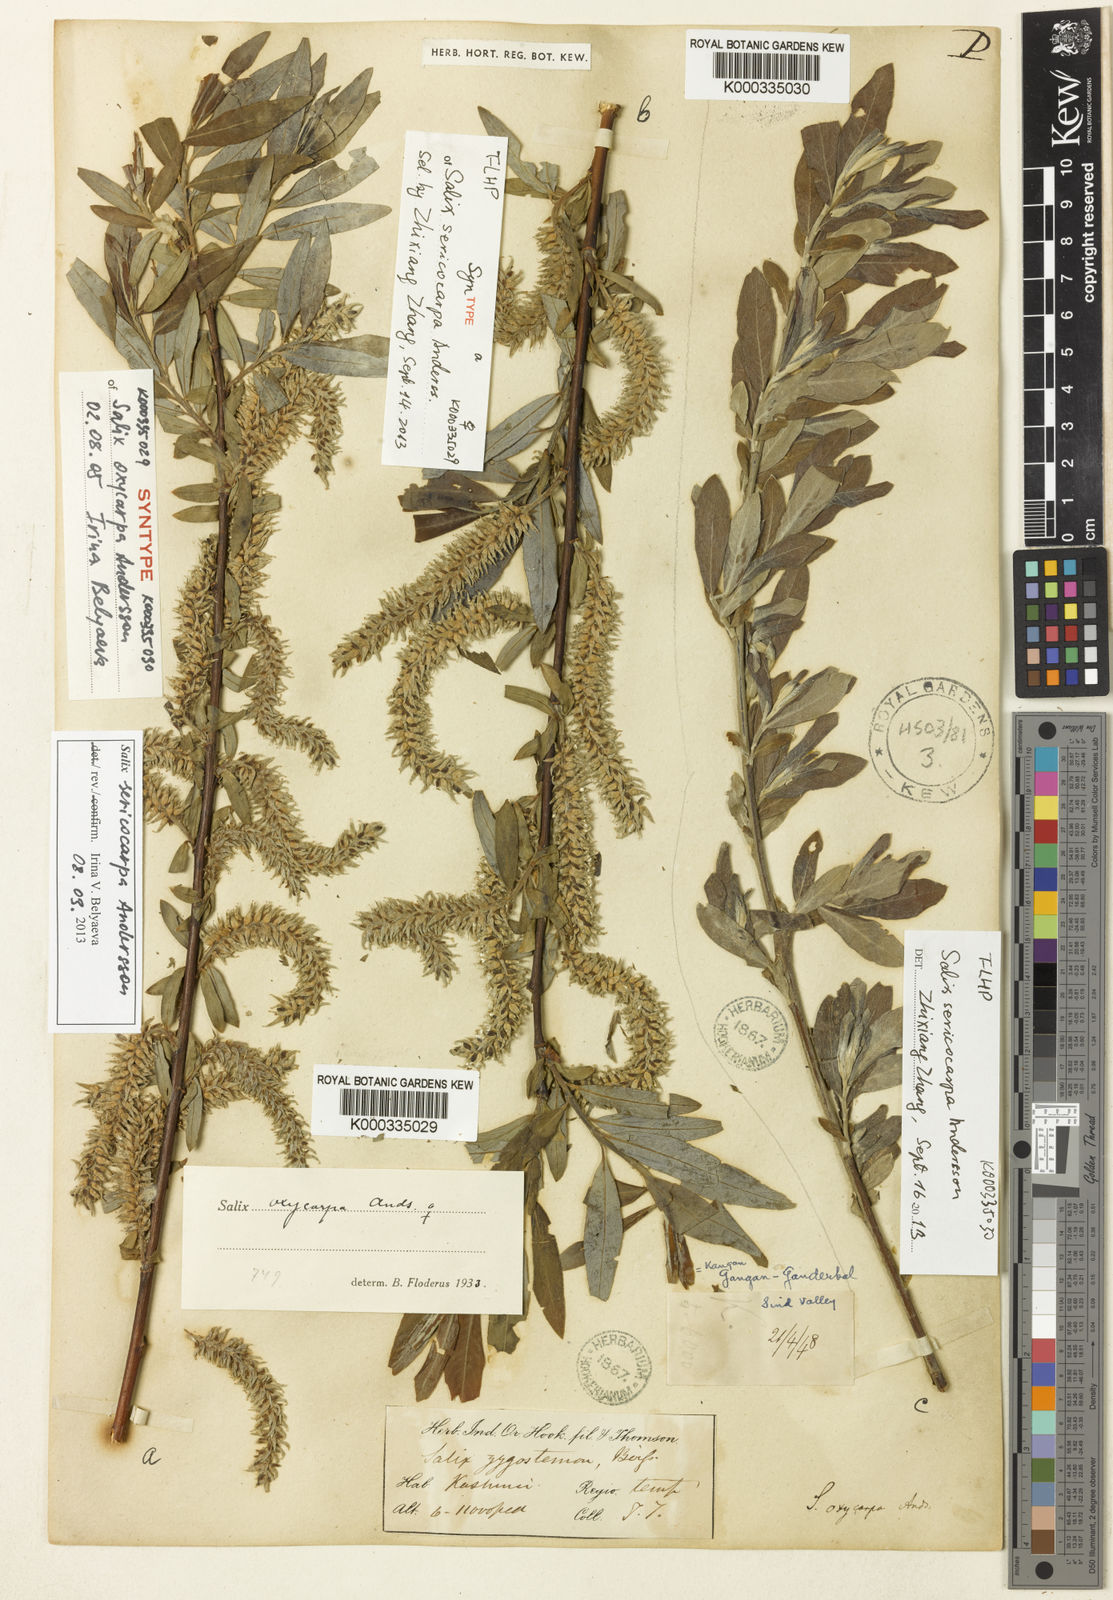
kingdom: Plantae
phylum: Tracheophyta
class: Magnoliopsida
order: Malpighiales
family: Salicaceae
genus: Salix
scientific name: Salix sericocarpa
